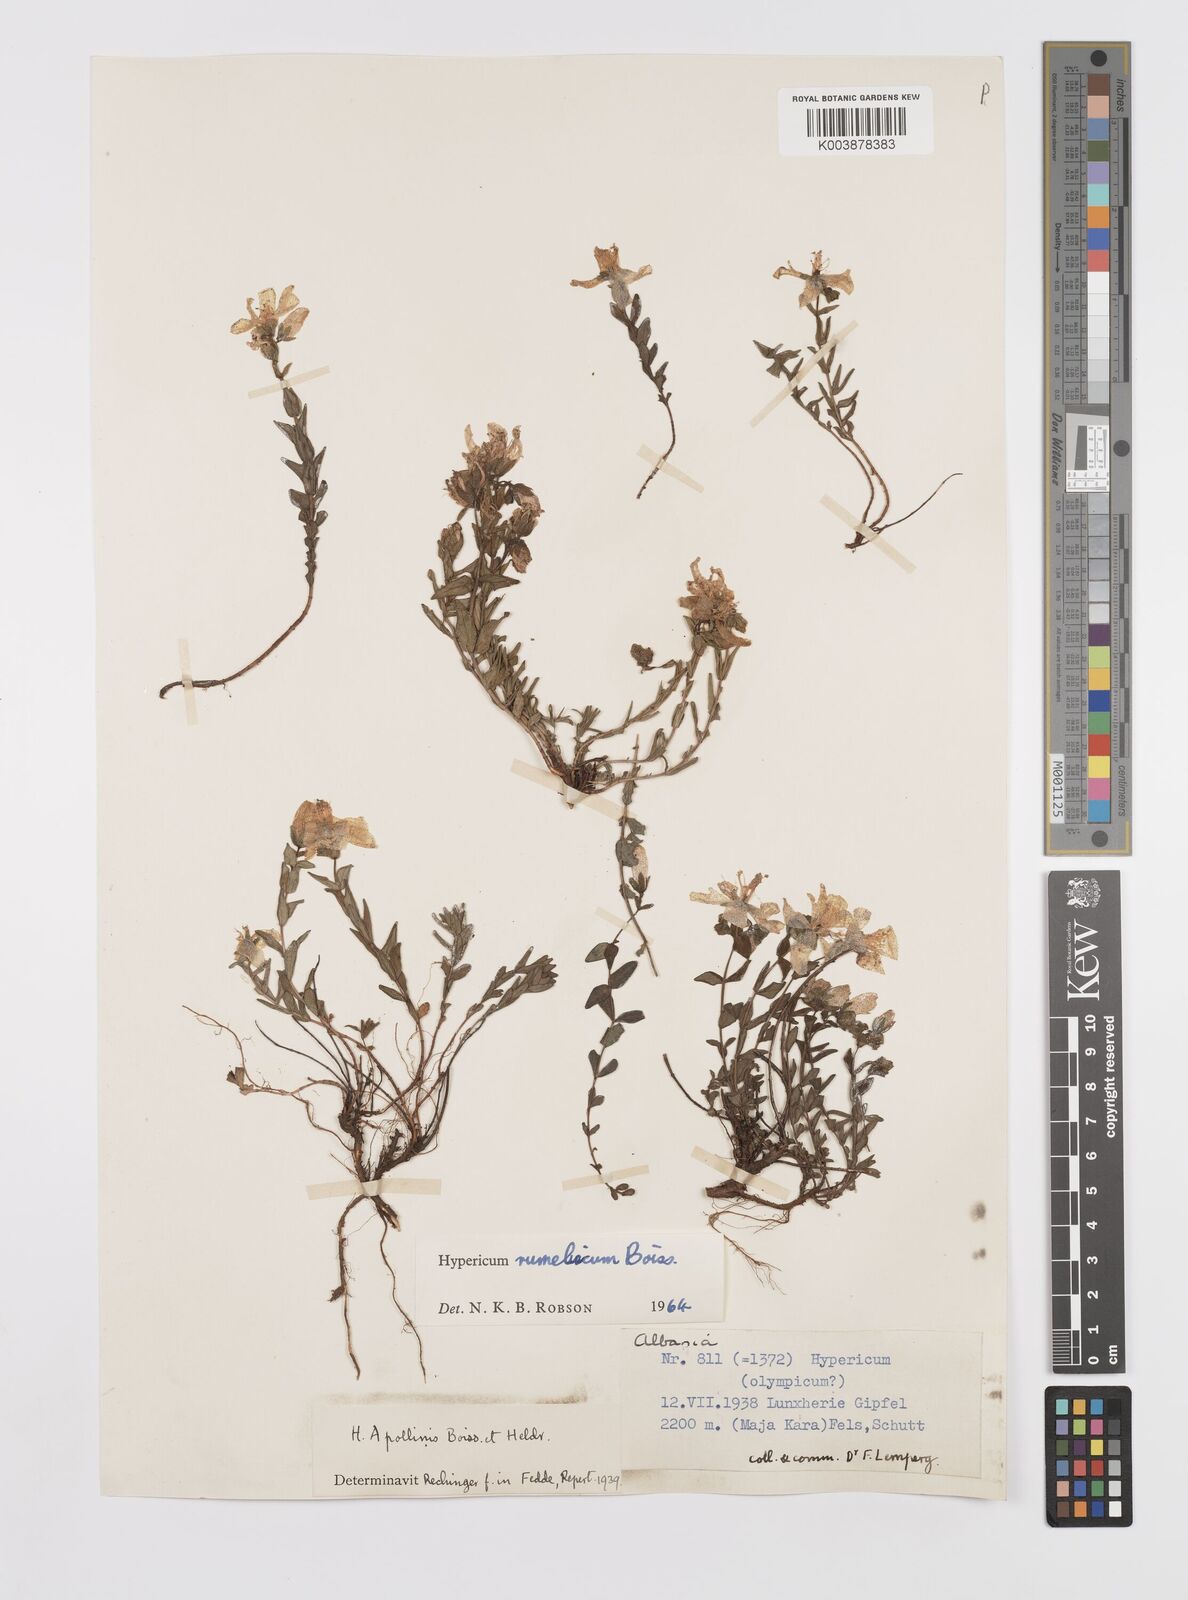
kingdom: Plantae
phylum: Tracheophyta
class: Magnoliopsida
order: Malpighiales
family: Hypericaceae
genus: Hypericum
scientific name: Hypericum rumeliacum
